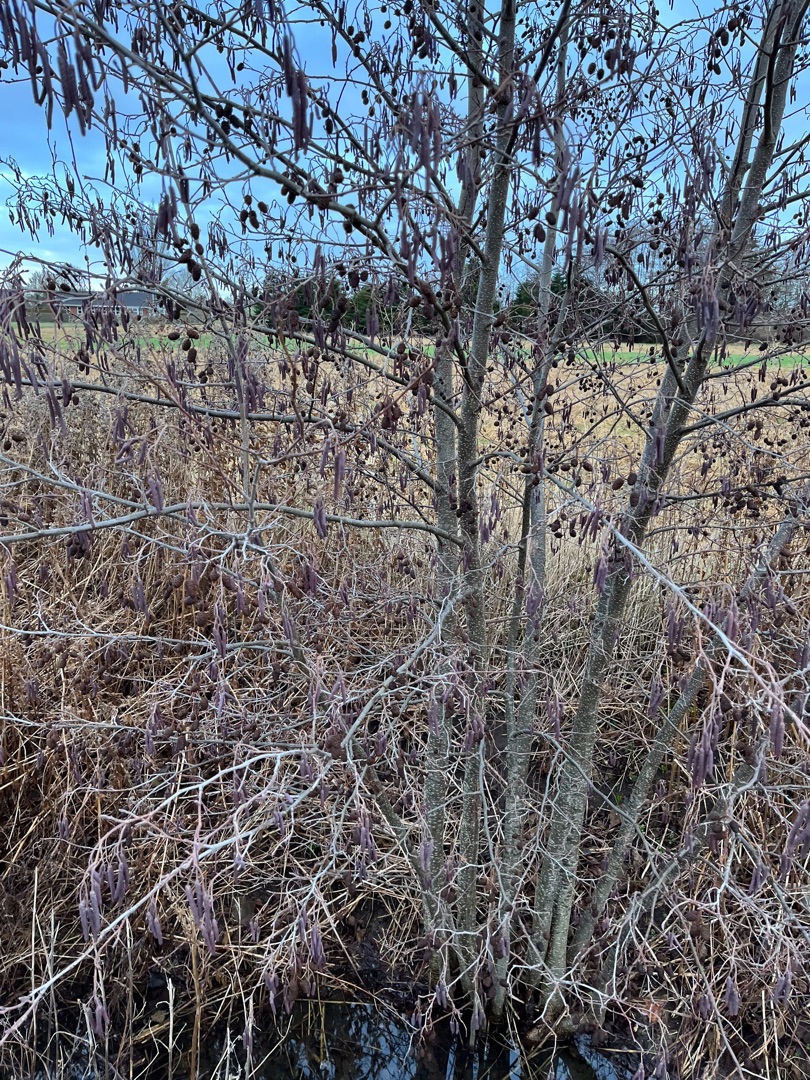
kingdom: Plantae
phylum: Tracheophyta
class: Magnoliopsida
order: Fagales
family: Betulaceae
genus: Alnus
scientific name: Alnus glutinosa
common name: Rød-el
